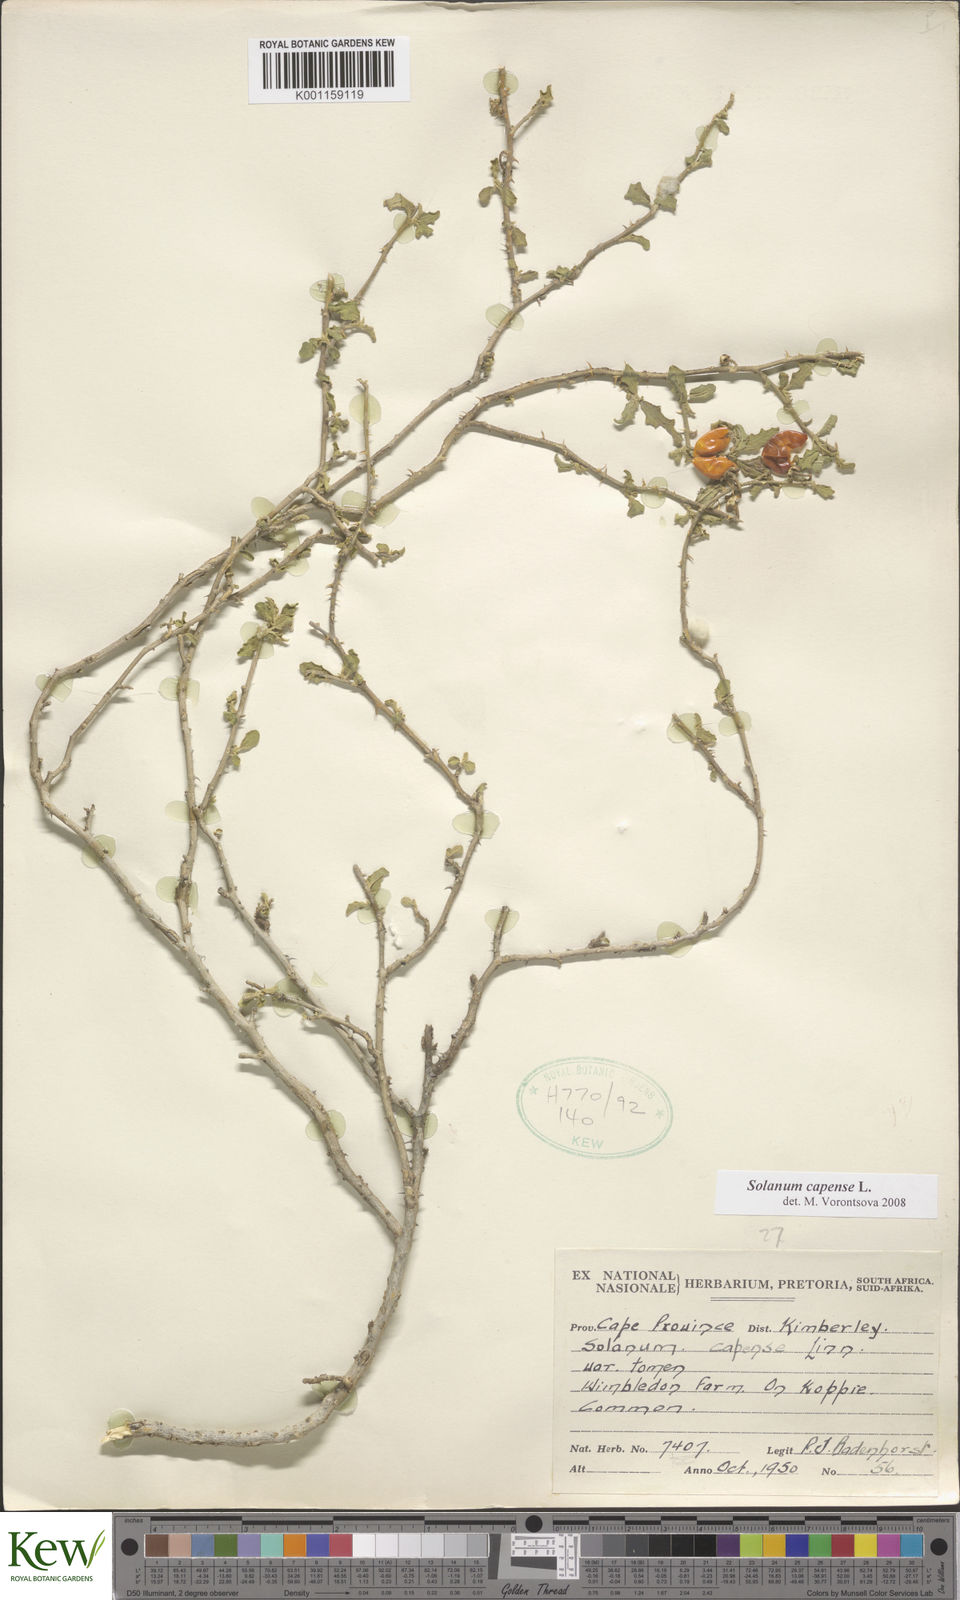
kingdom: Plantae
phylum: Tracheophyta
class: Magnoliopsida
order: Solanales
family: Solanaceae
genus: Solanum
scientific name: Solanum capense
